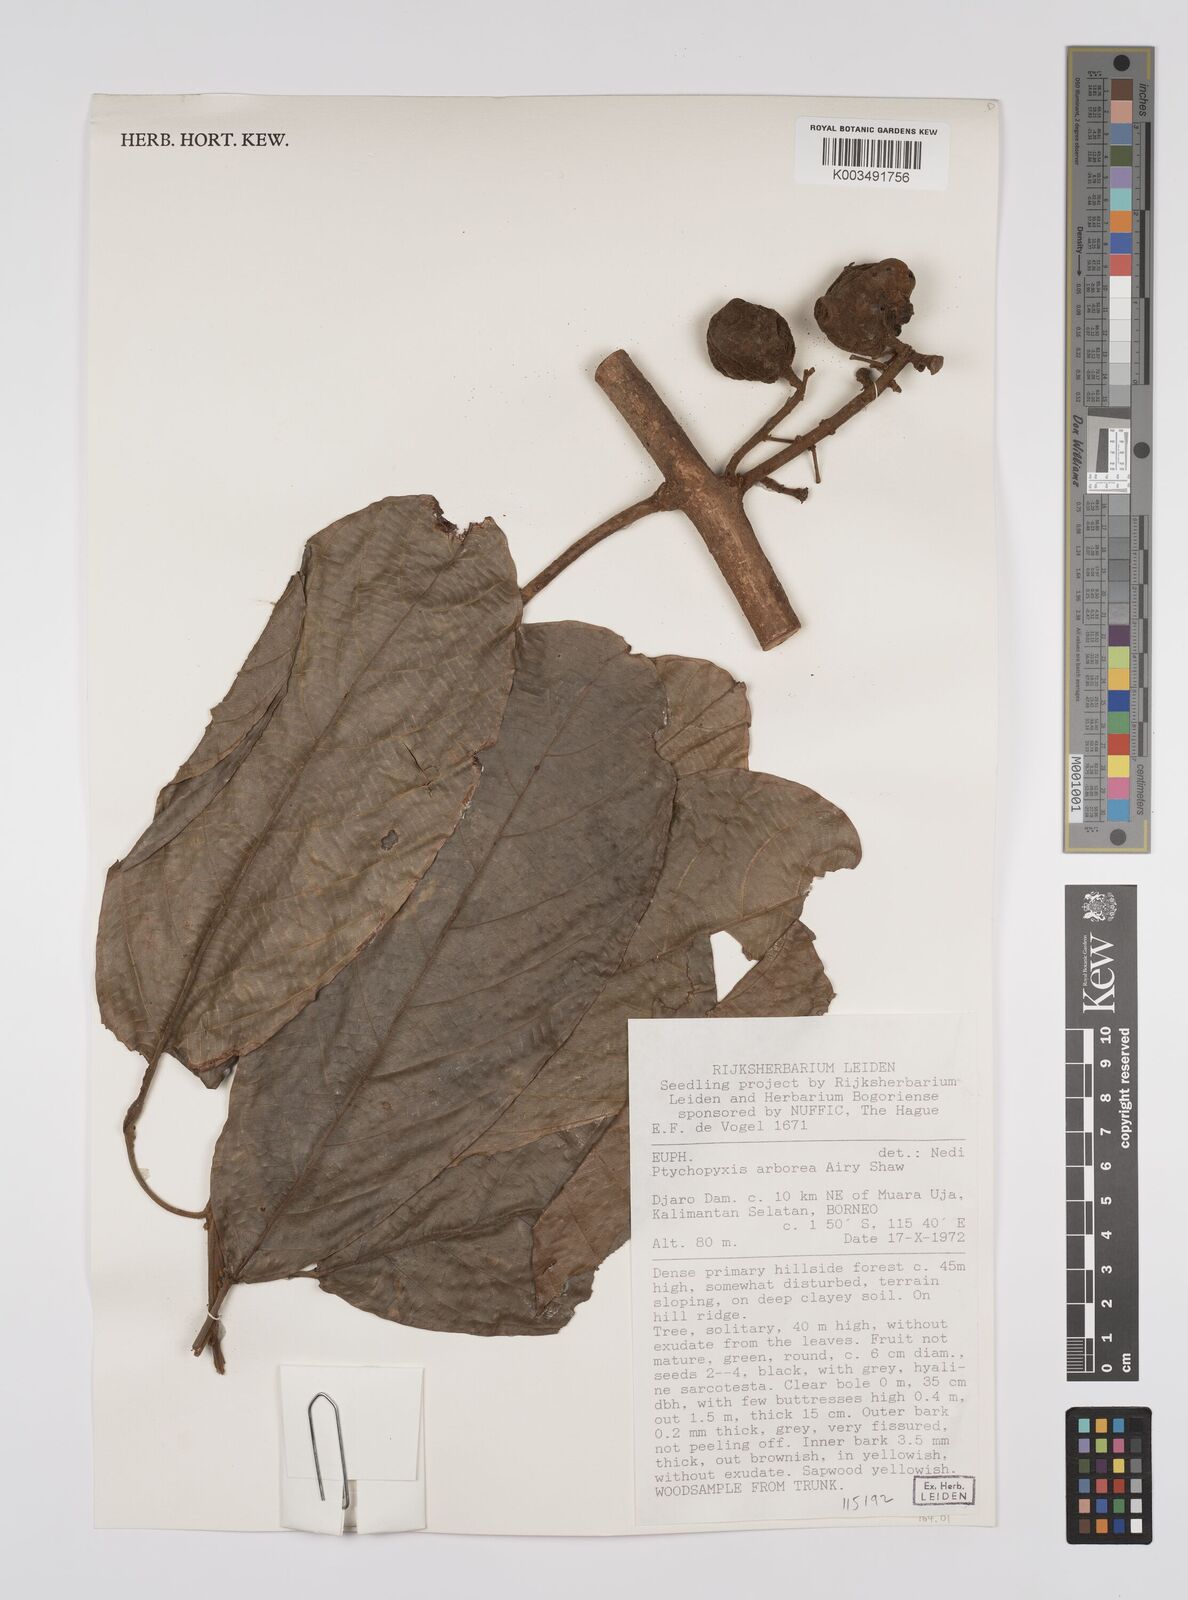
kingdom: Plantae
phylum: Tracheophyta
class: Magnoliopsida
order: Malpighiales
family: Euphorbiaceae
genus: Ptychopyxis
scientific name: Ptychopyxis arborea
